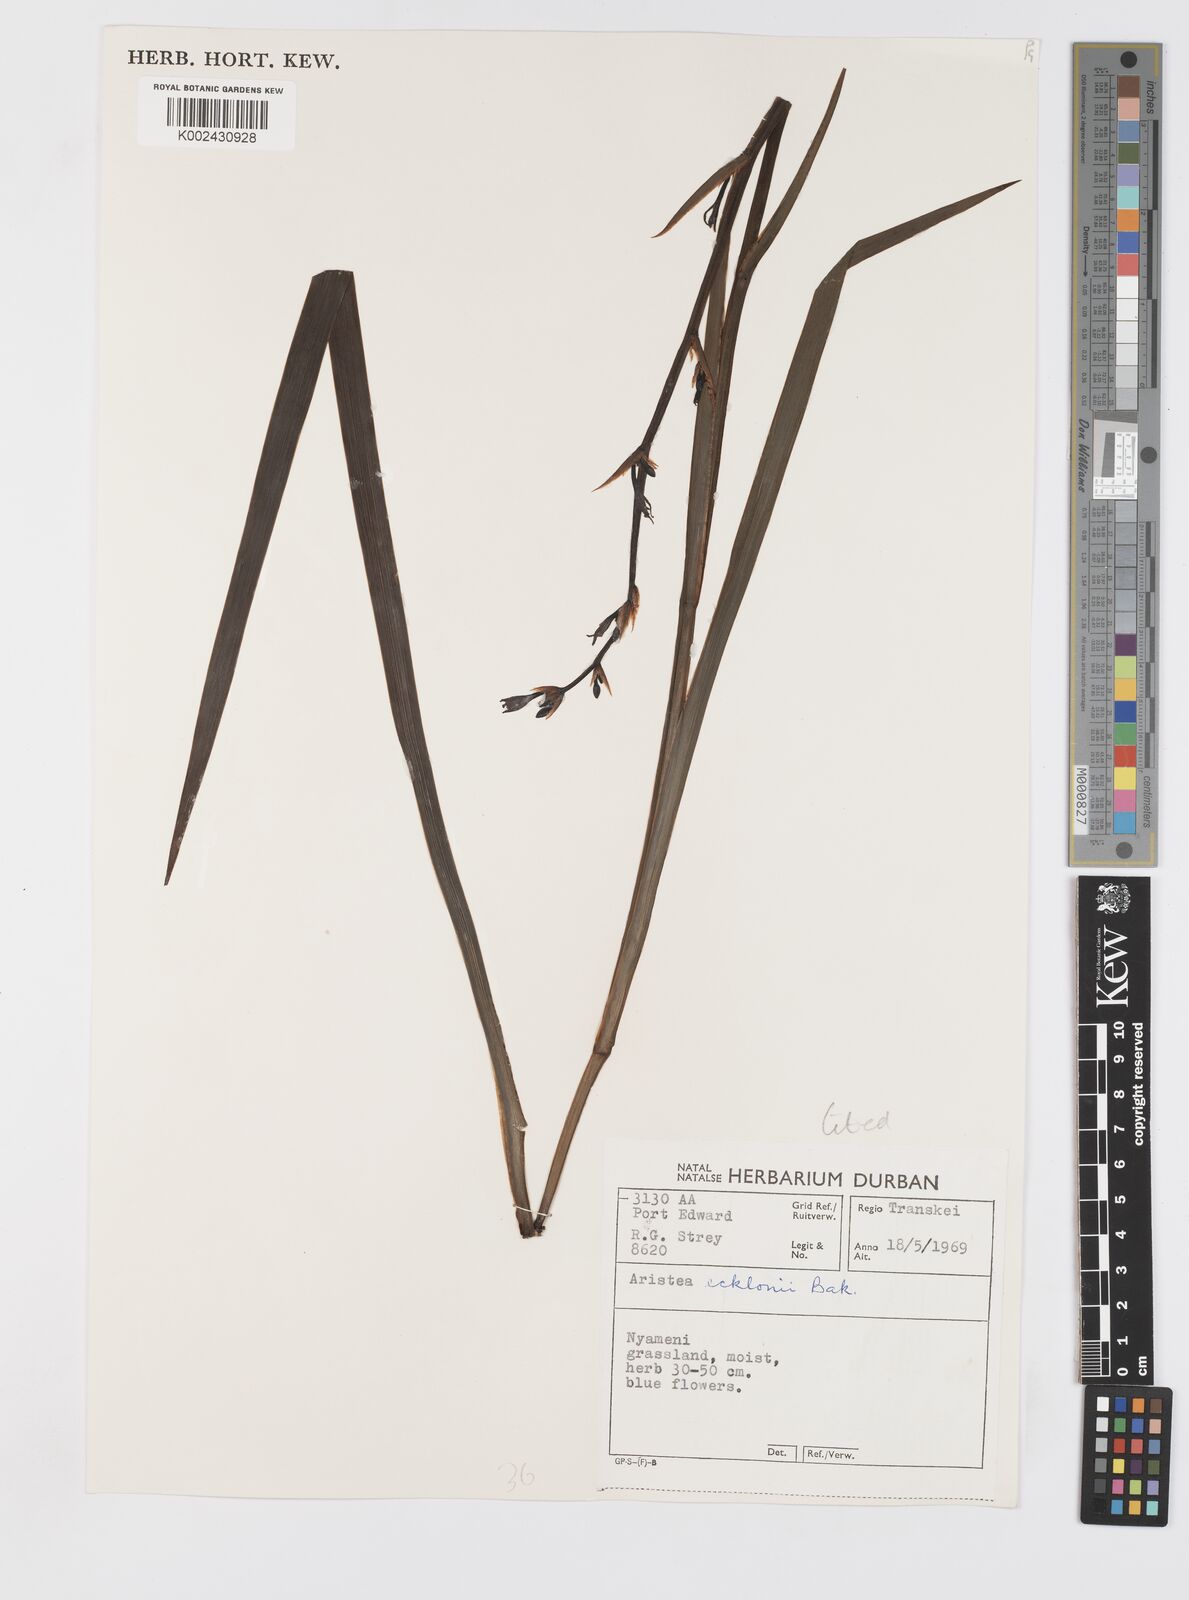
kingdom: Plantae
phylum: Tracheophyta
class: Liliopsida
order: Asparagales
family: Iridaceae
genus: Aristea
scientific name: Aristea ecklonii
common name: Blue corn-lily
